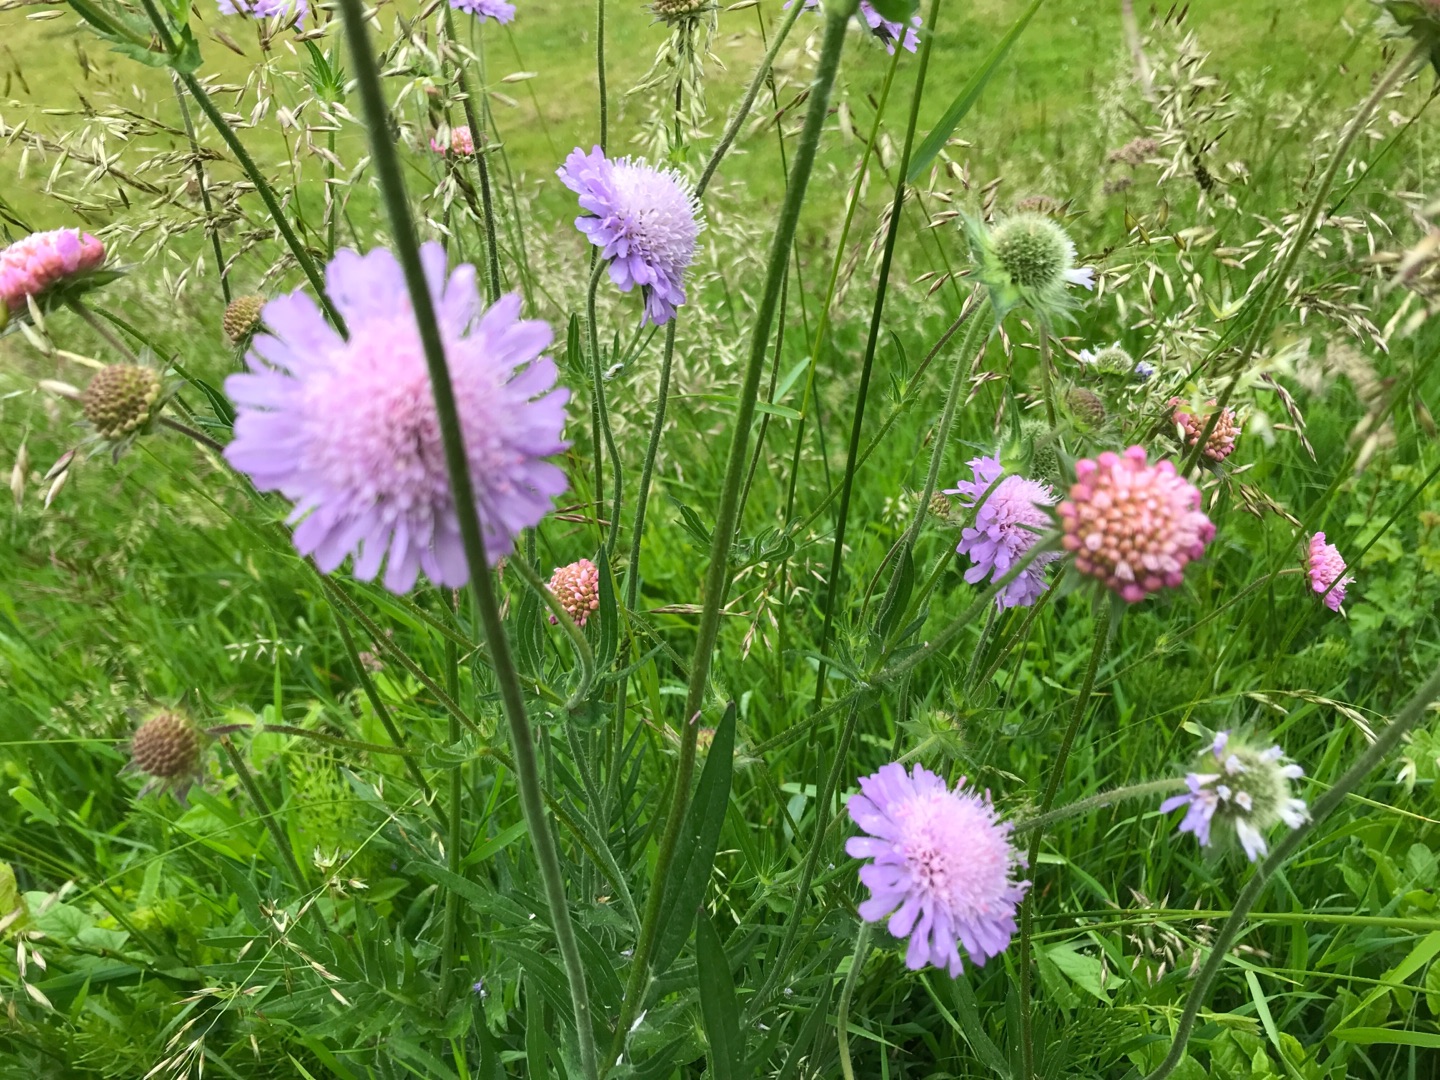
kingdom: Plantae
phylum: Tracheophyta
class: Magnoliopsida
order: Dipsacales
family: Caprifoliaceae
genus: Knautia
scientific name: Knautia arvensis
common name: Blåhat
